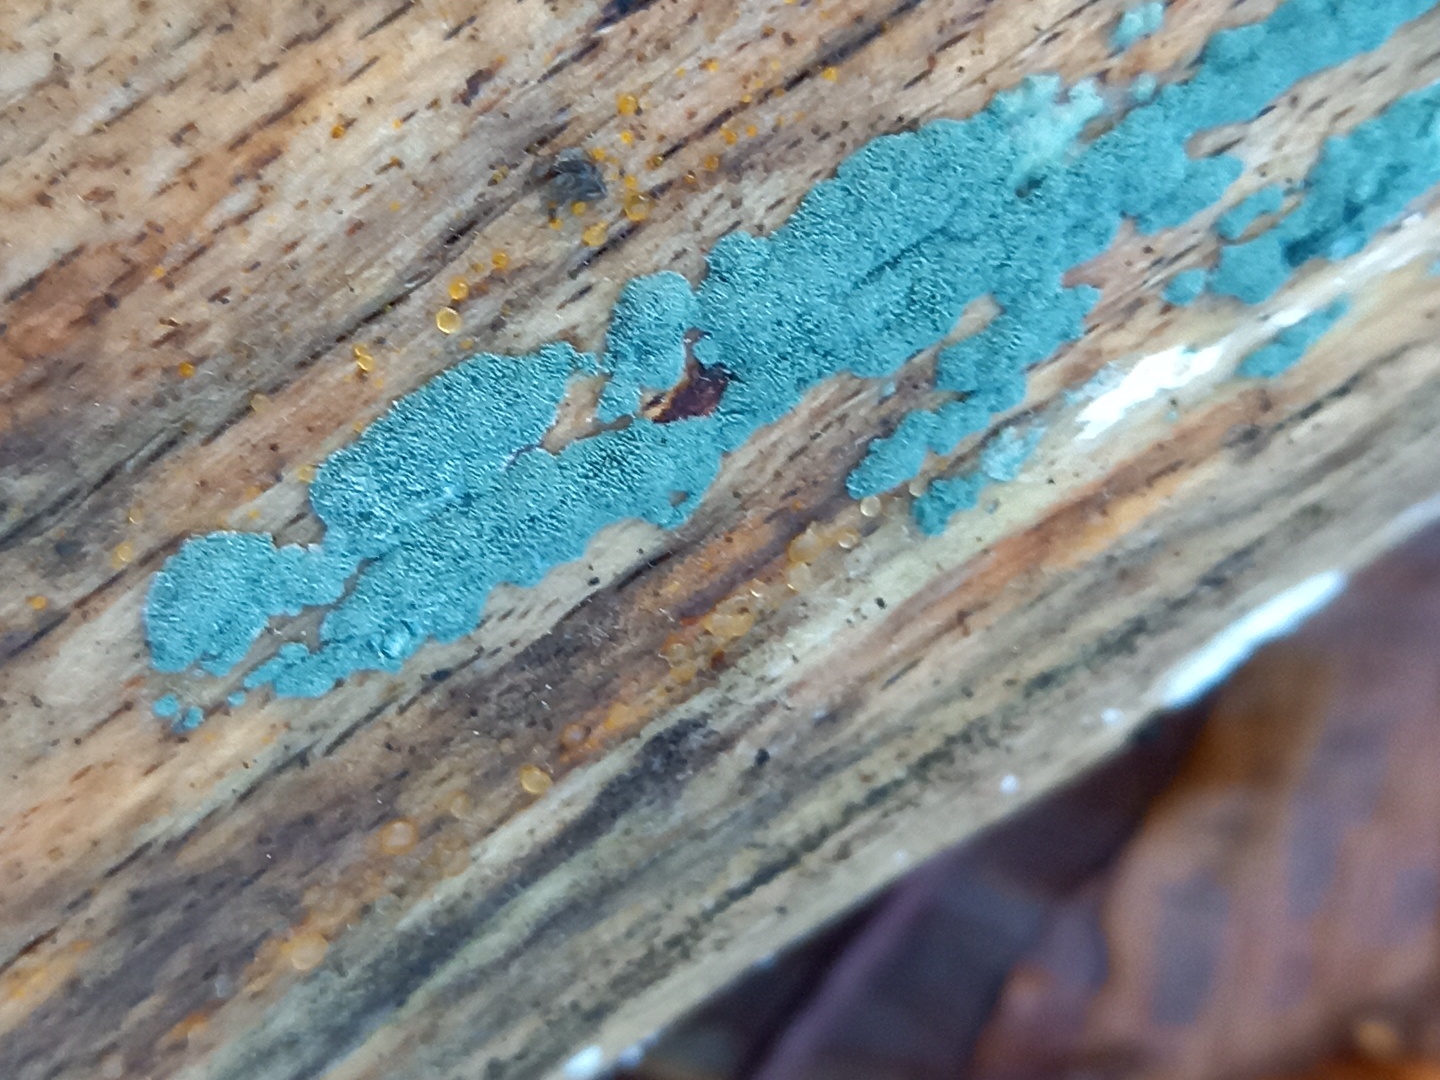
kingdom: Fungi
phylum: Ascomycota
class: Sordariomycetes
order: Hypocreales
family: Hypocreaceae
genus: Trichoderma
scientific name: Trichoderma
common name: kødkerne
